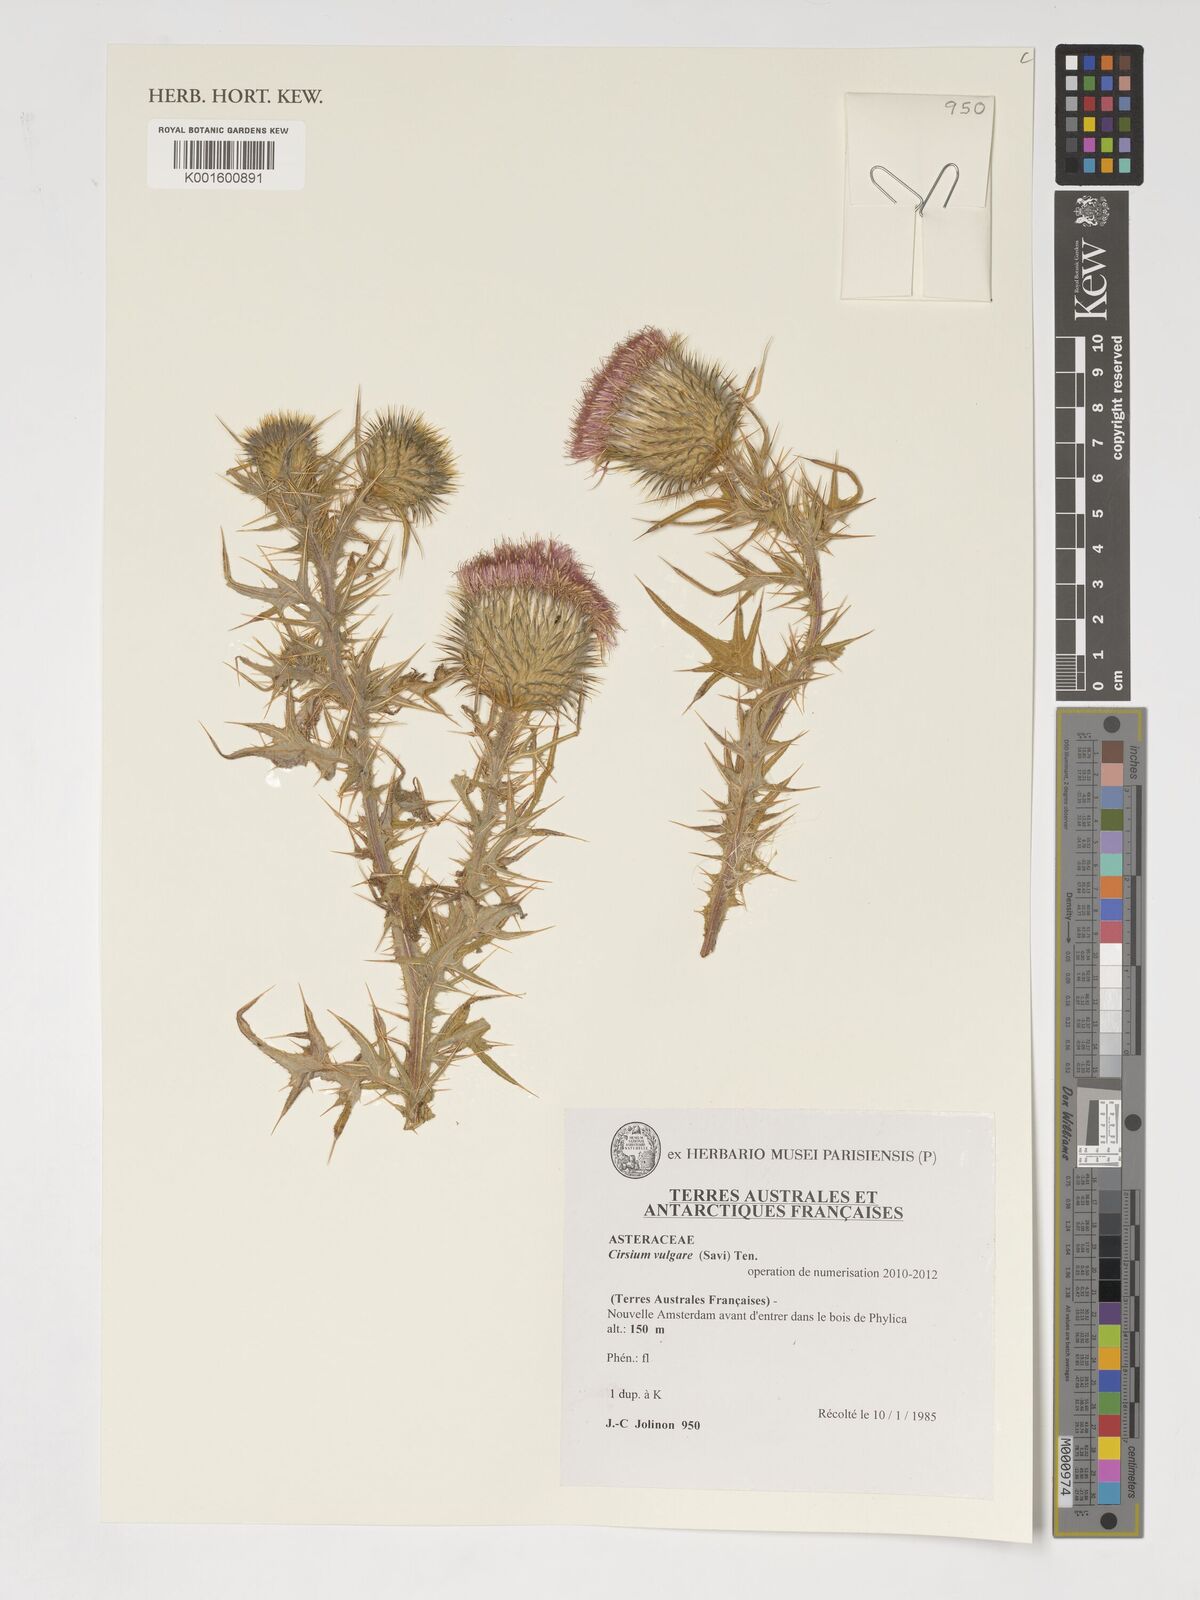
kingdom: Plantae
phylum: Tracheophyta
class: Magnoliopsida
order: Asterales
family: Asteraceae
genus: Cirsium
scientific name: Cirsium vulgare
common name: Bull thistle
